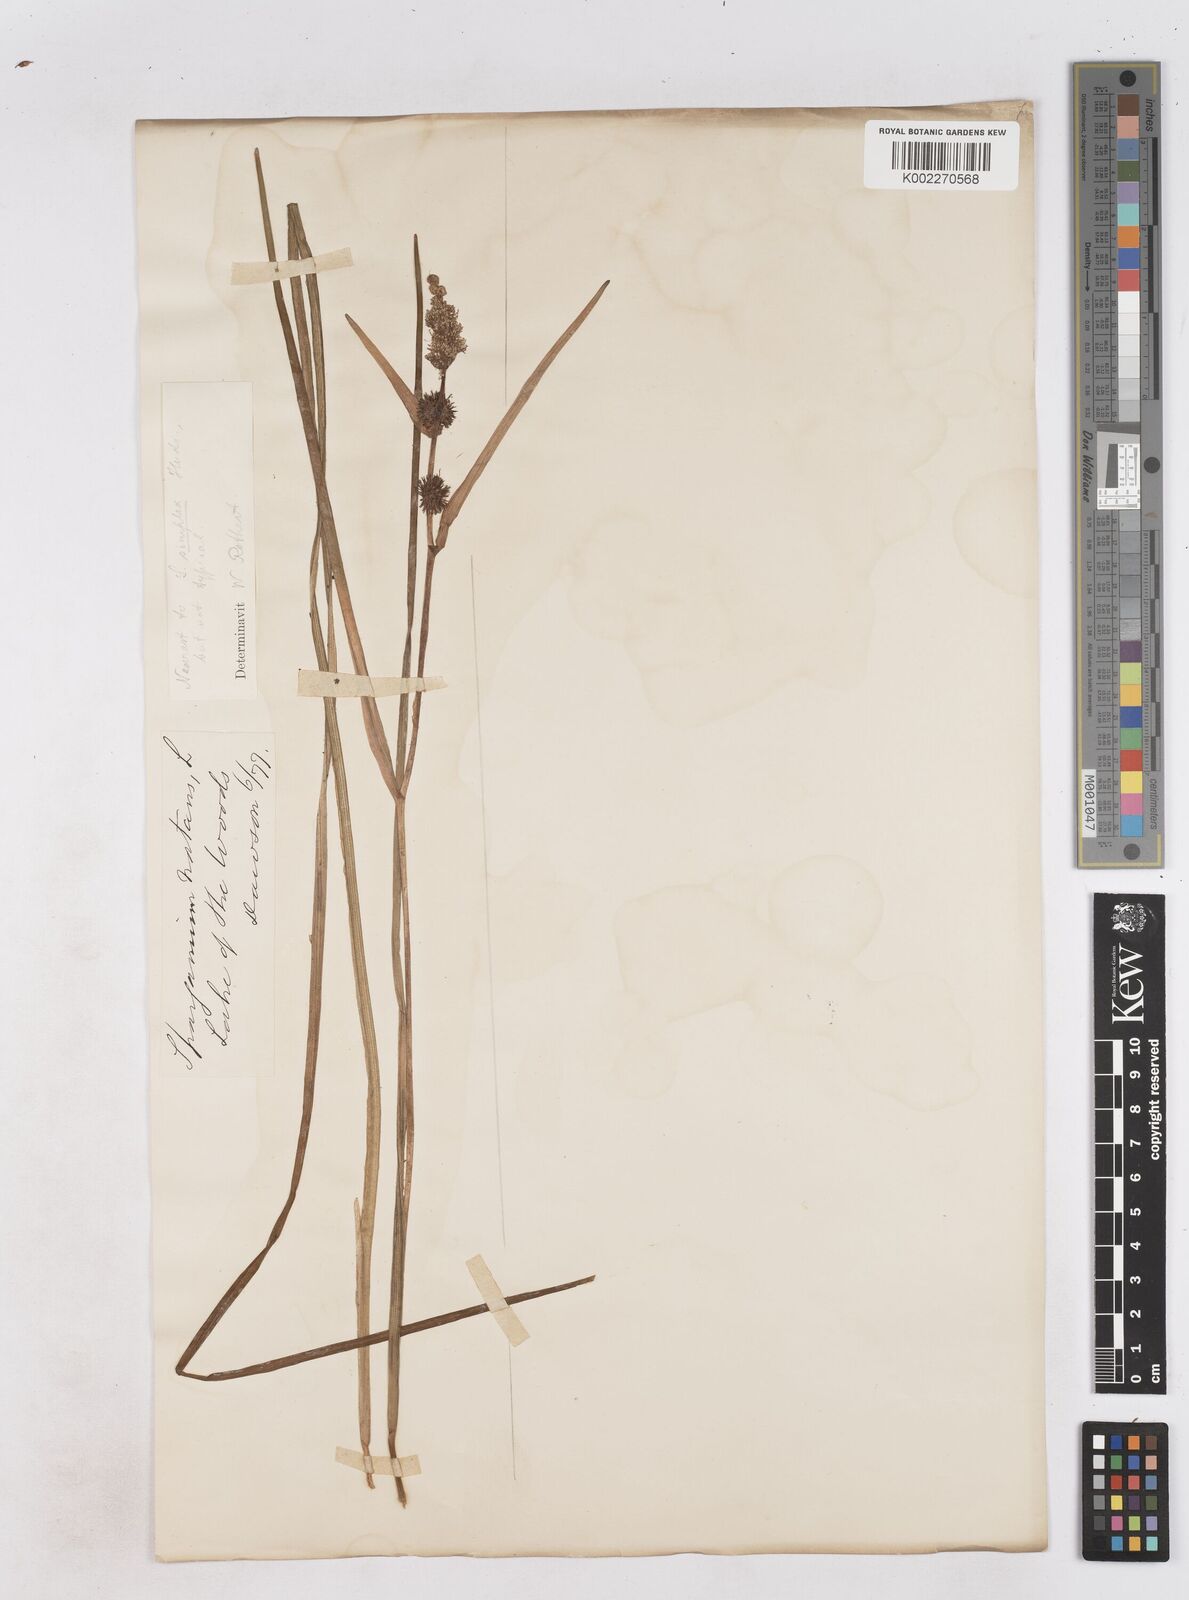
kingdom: Plantae
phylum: Tracheophyta
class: Liliopsida
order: Poales
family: Typhaceae
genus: Sparganium
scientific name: Sparganium angustifolium
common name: Floating bur-reed
